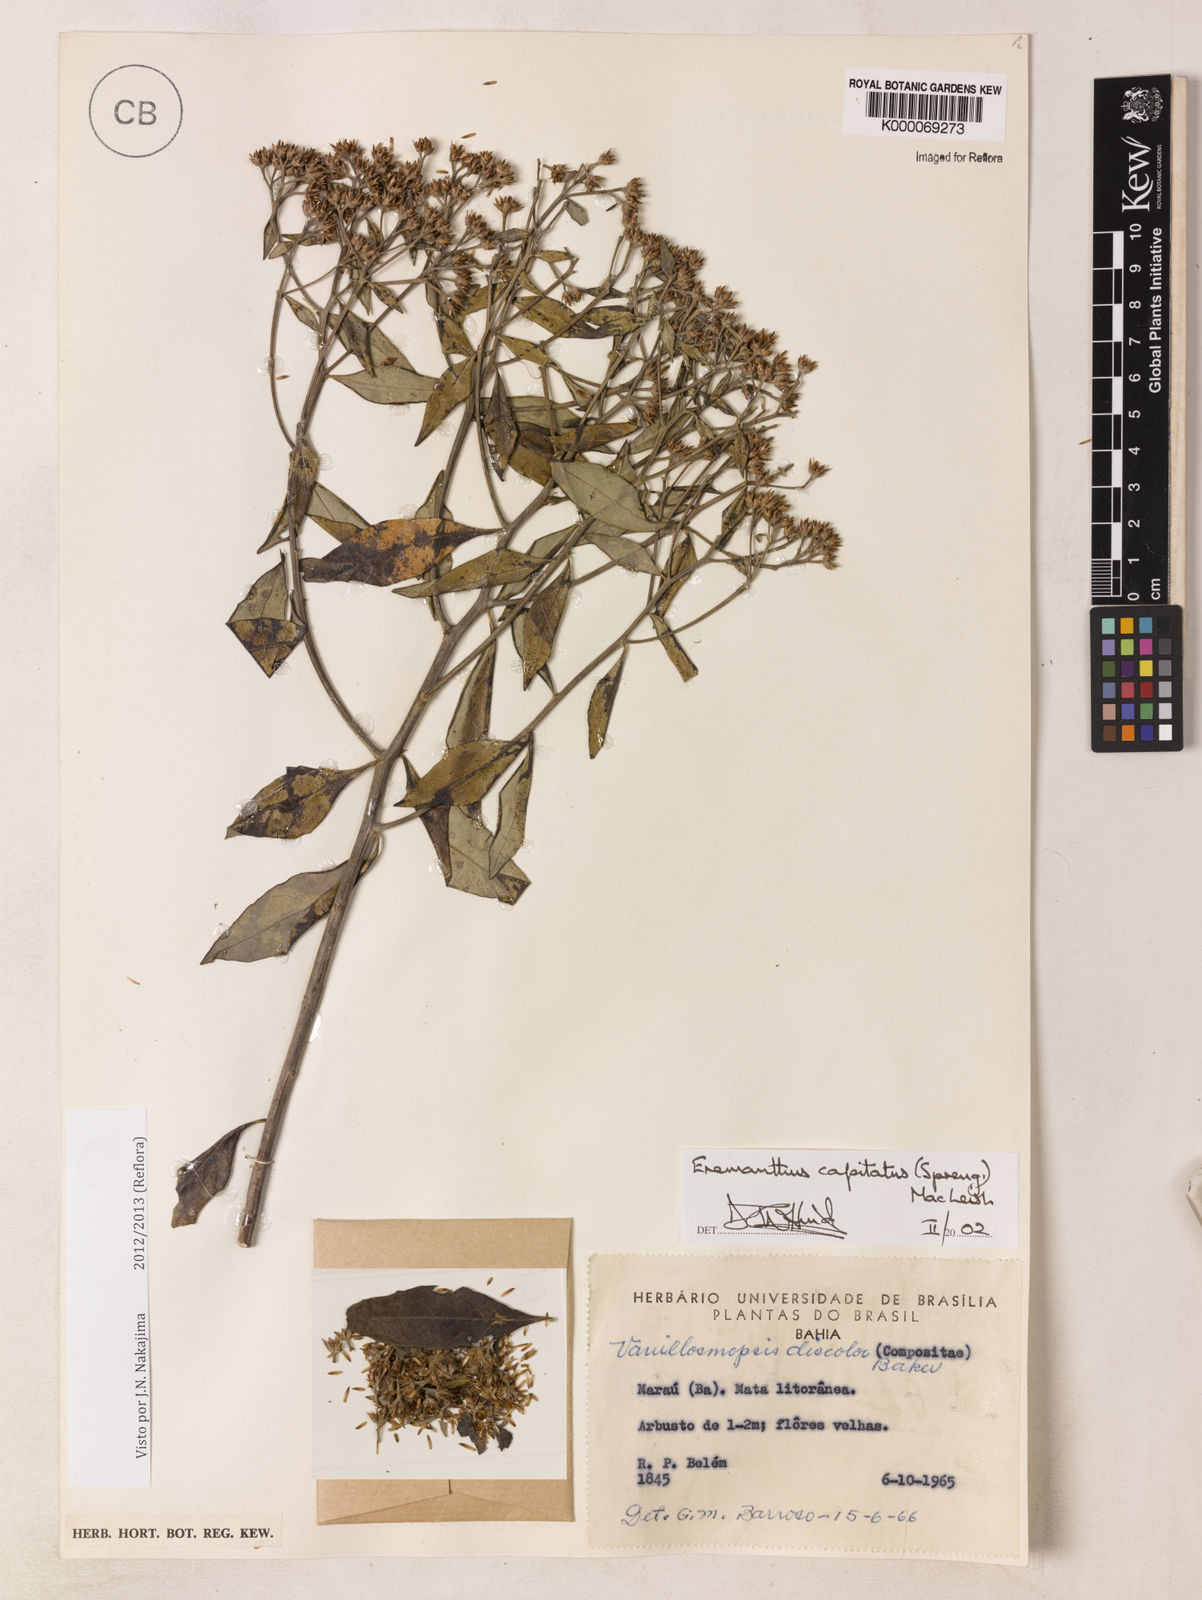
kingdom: Plantae
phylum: Tracheophyta
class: Magnoliopsida
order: Asterales
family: Asteraceae
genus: Eremanthus
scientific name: Eremanthus capitatus
